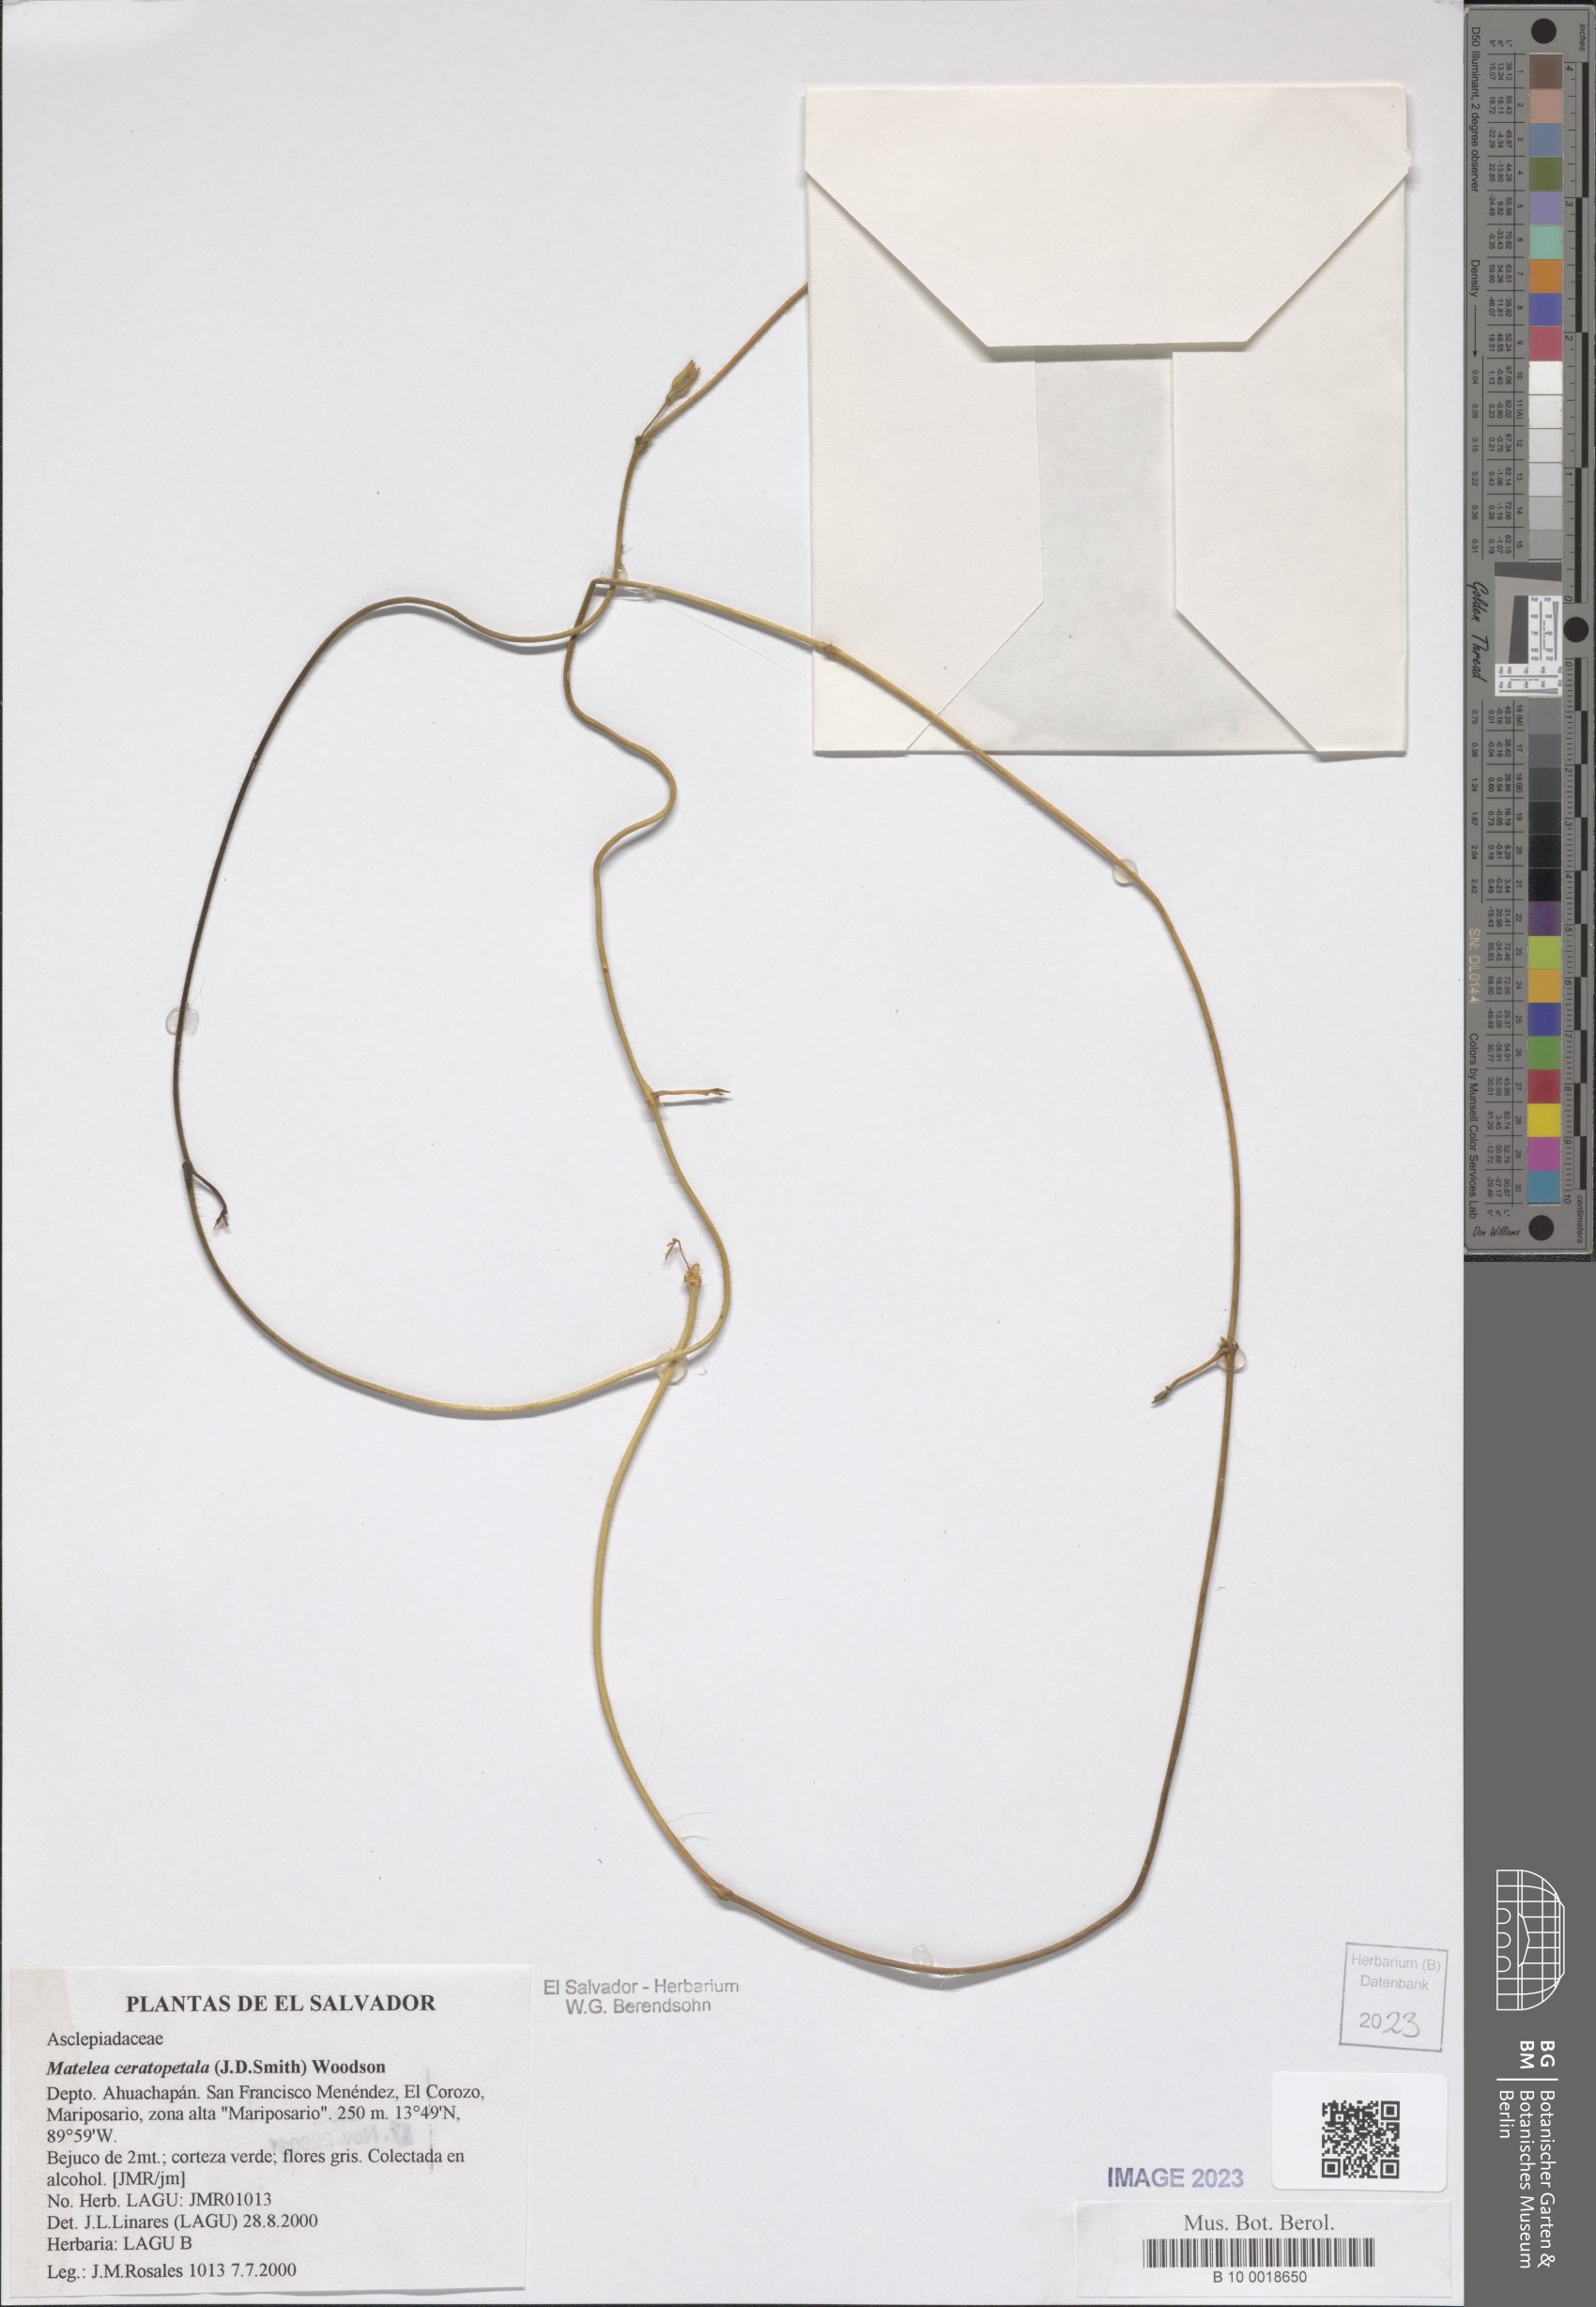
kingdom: Plantae
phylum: Tracheophyta
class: Magnoliopsida
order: Gentianales
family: Apocynaceae
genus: Dictyanthus
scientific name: Dictyanthus ceratopetalus
